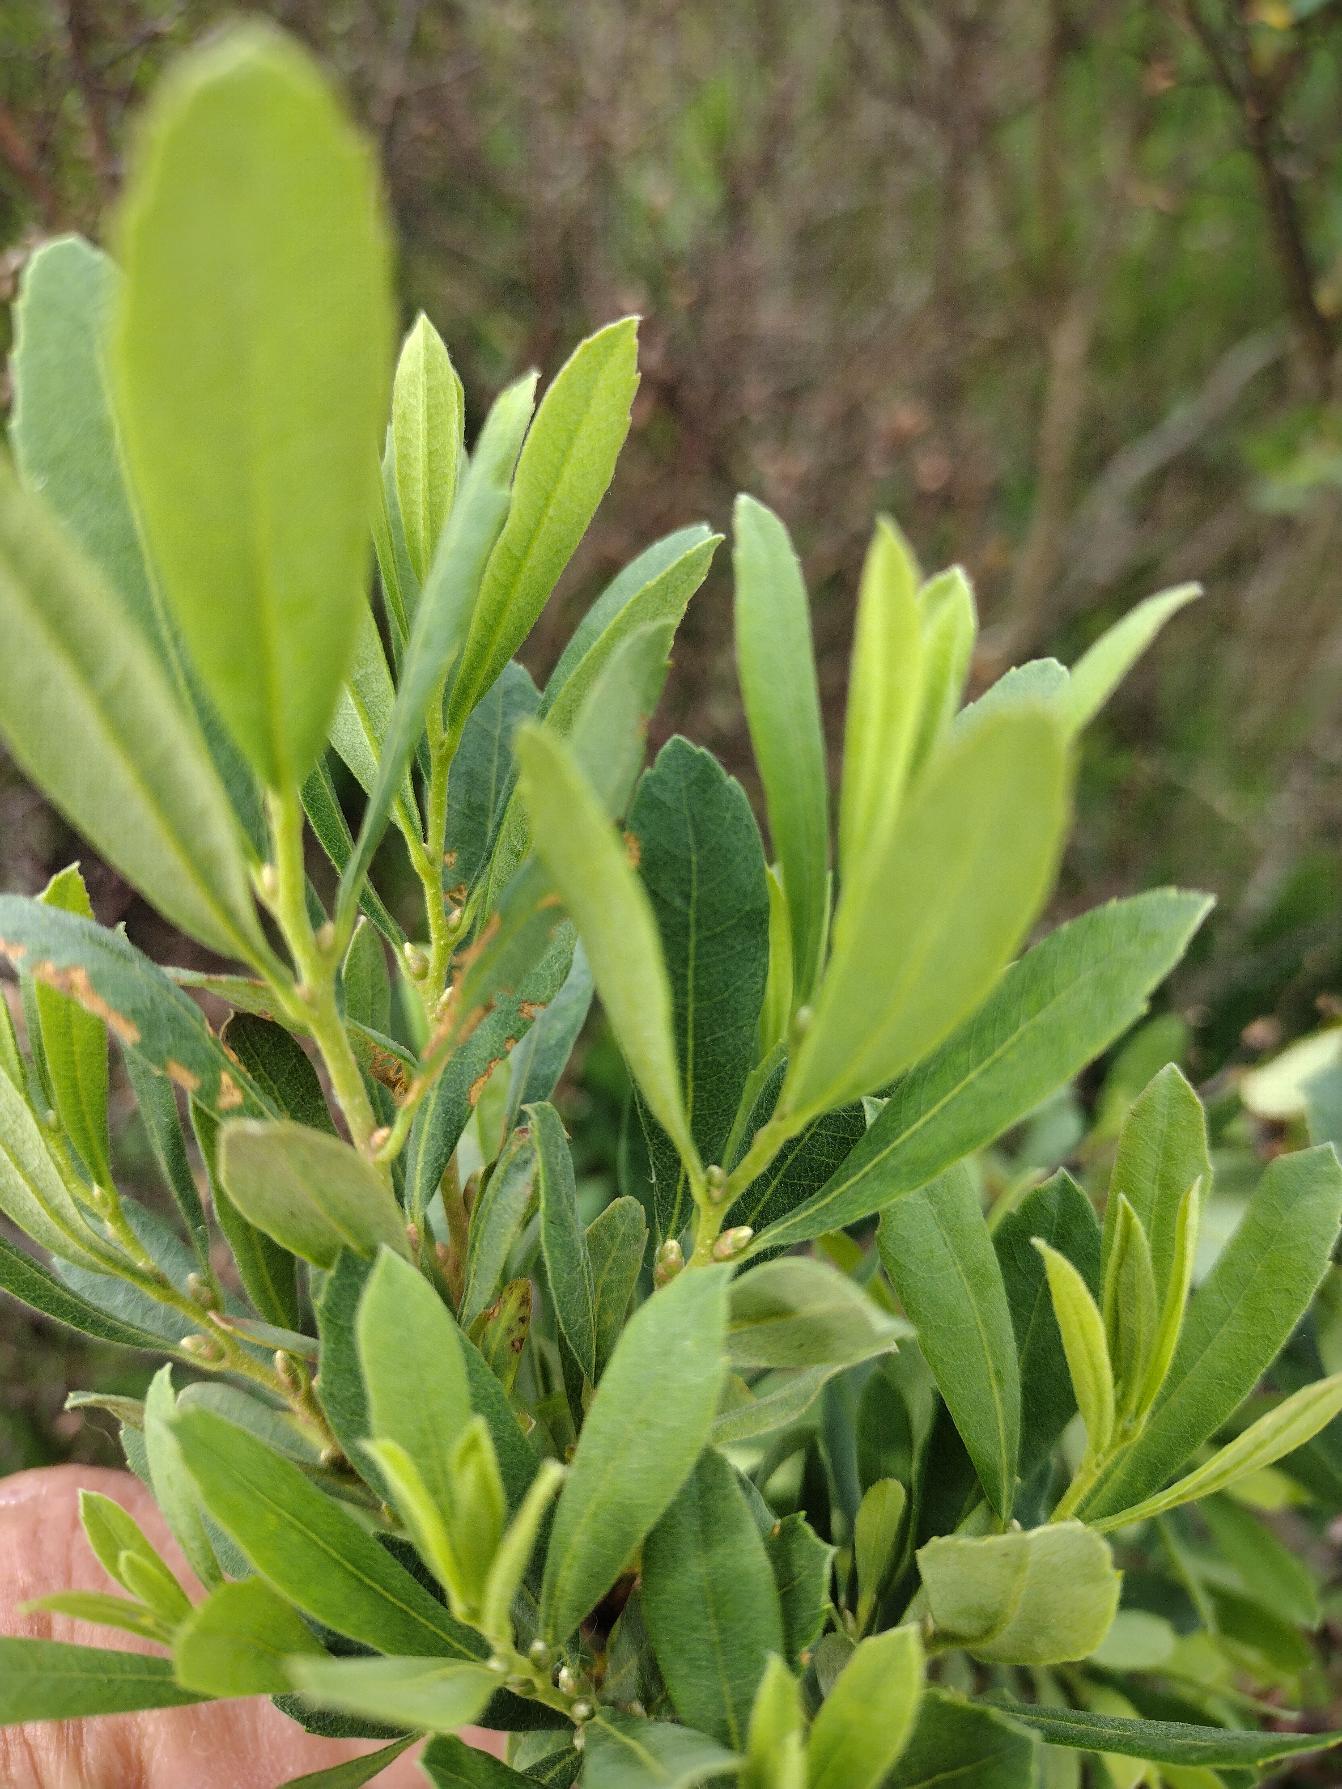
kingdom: Plantae
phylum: Tracheophyta
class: Magnoliopsida
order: Fagales
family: Myricaceae
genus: Myrica
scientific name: Myrica gale
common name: Pors
